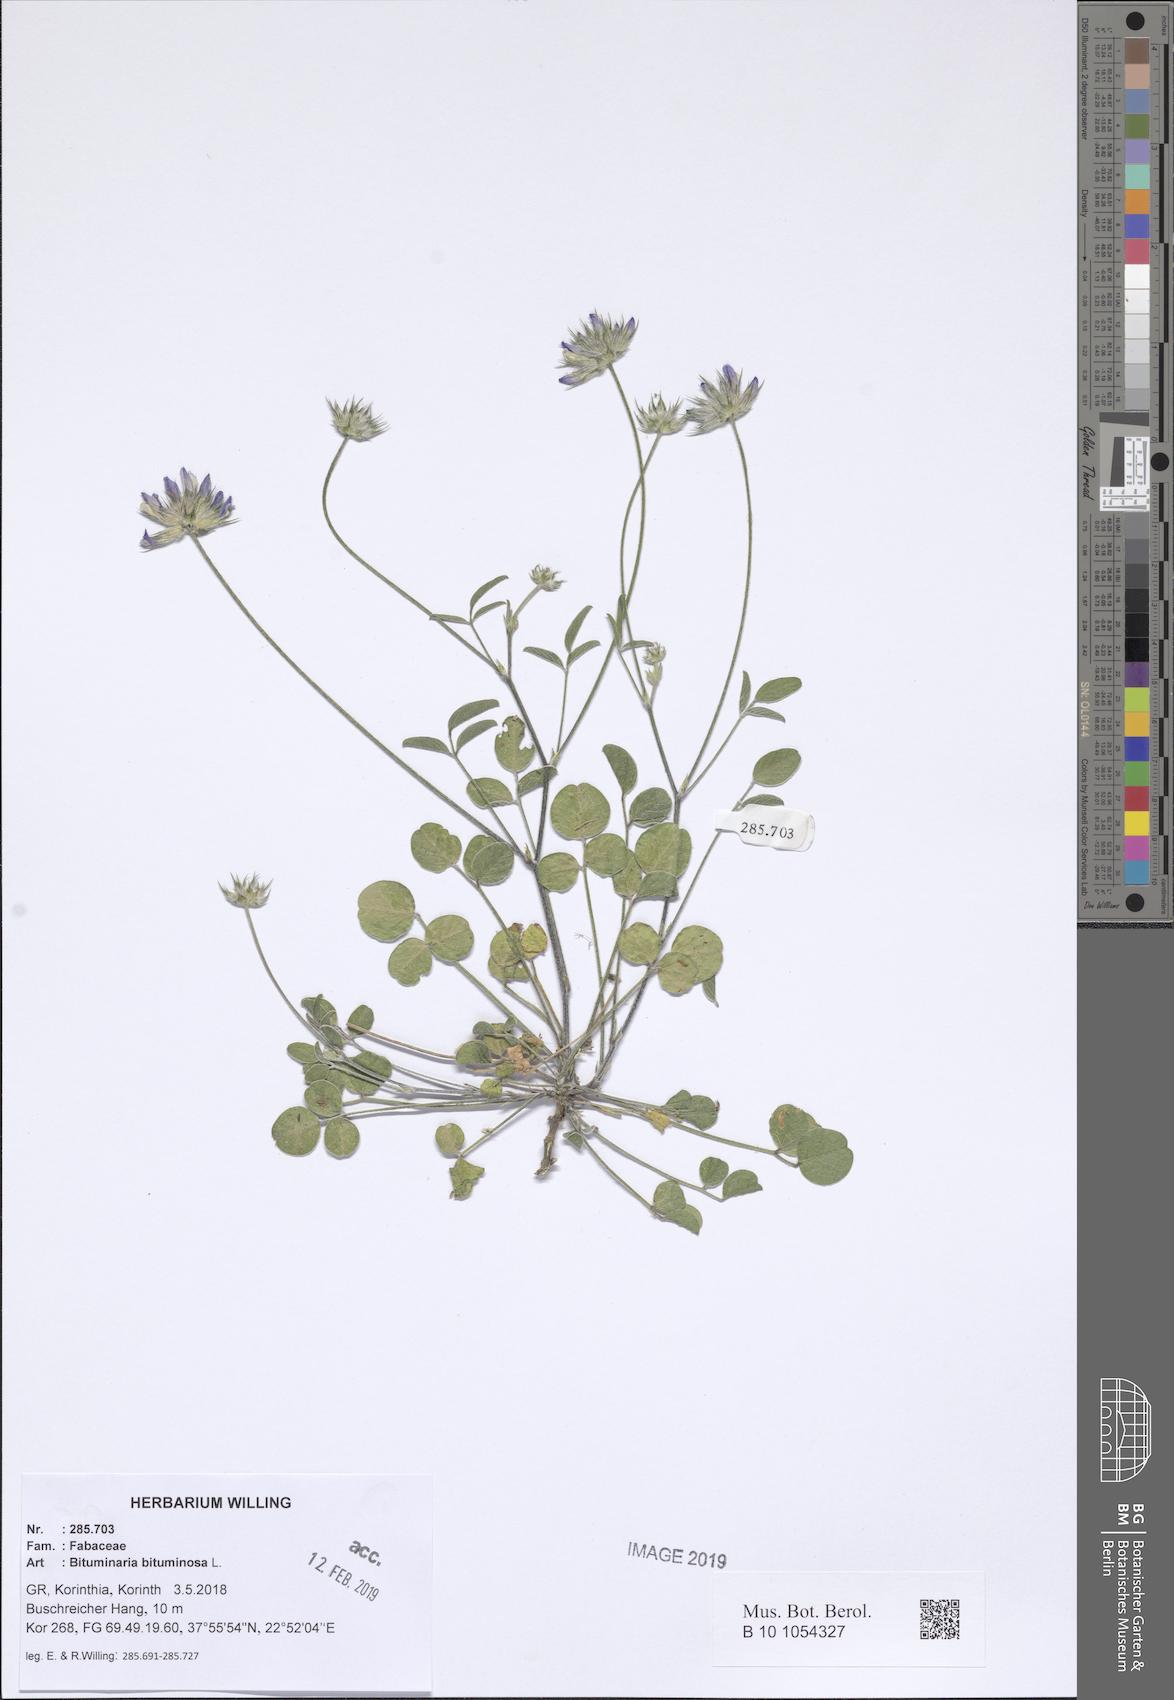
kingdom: Plantae
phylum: Tracheophyta
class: Magnoliopsida
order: Fabales
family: Fabaceae
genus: Bituminaria
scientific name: Bituminaria bituminosa
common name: Arabian pea
